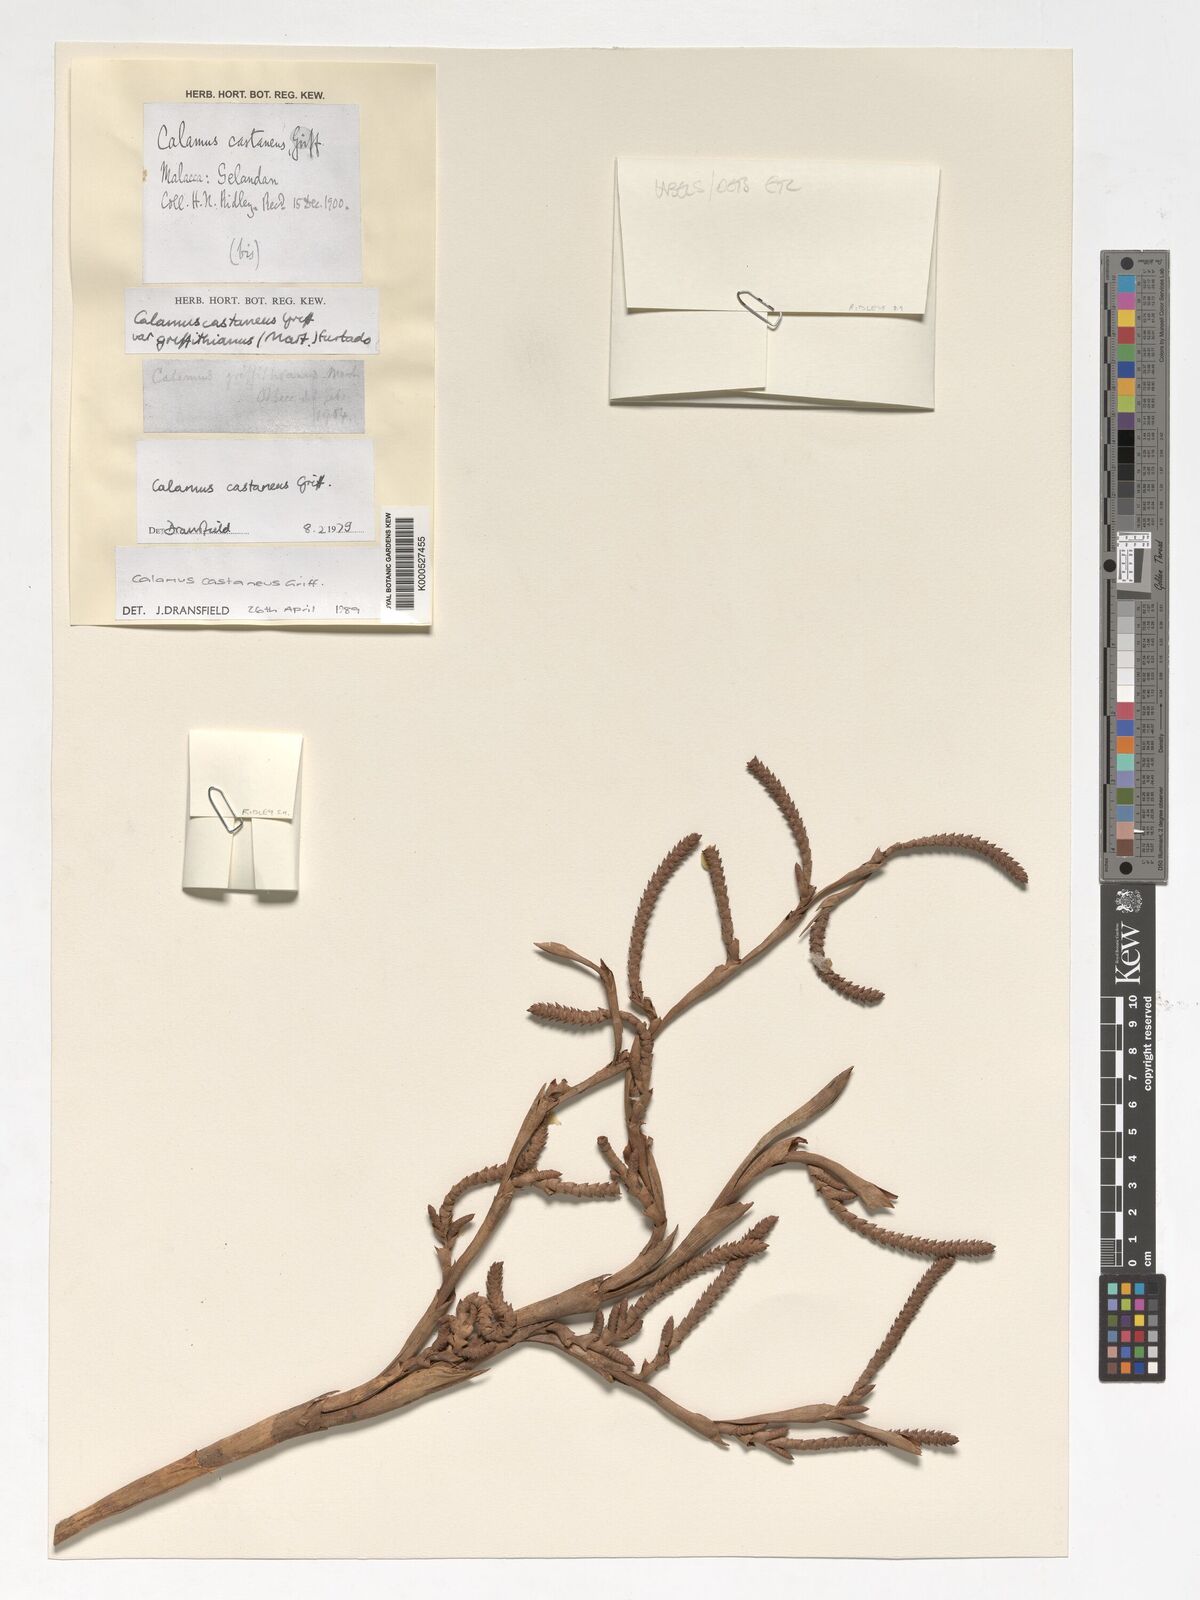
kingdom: Plantae
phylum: Tracheophyta
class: Liliopsida
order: Arecales
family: Arecaceae
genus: Calamus
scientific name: Calamus castaneus
